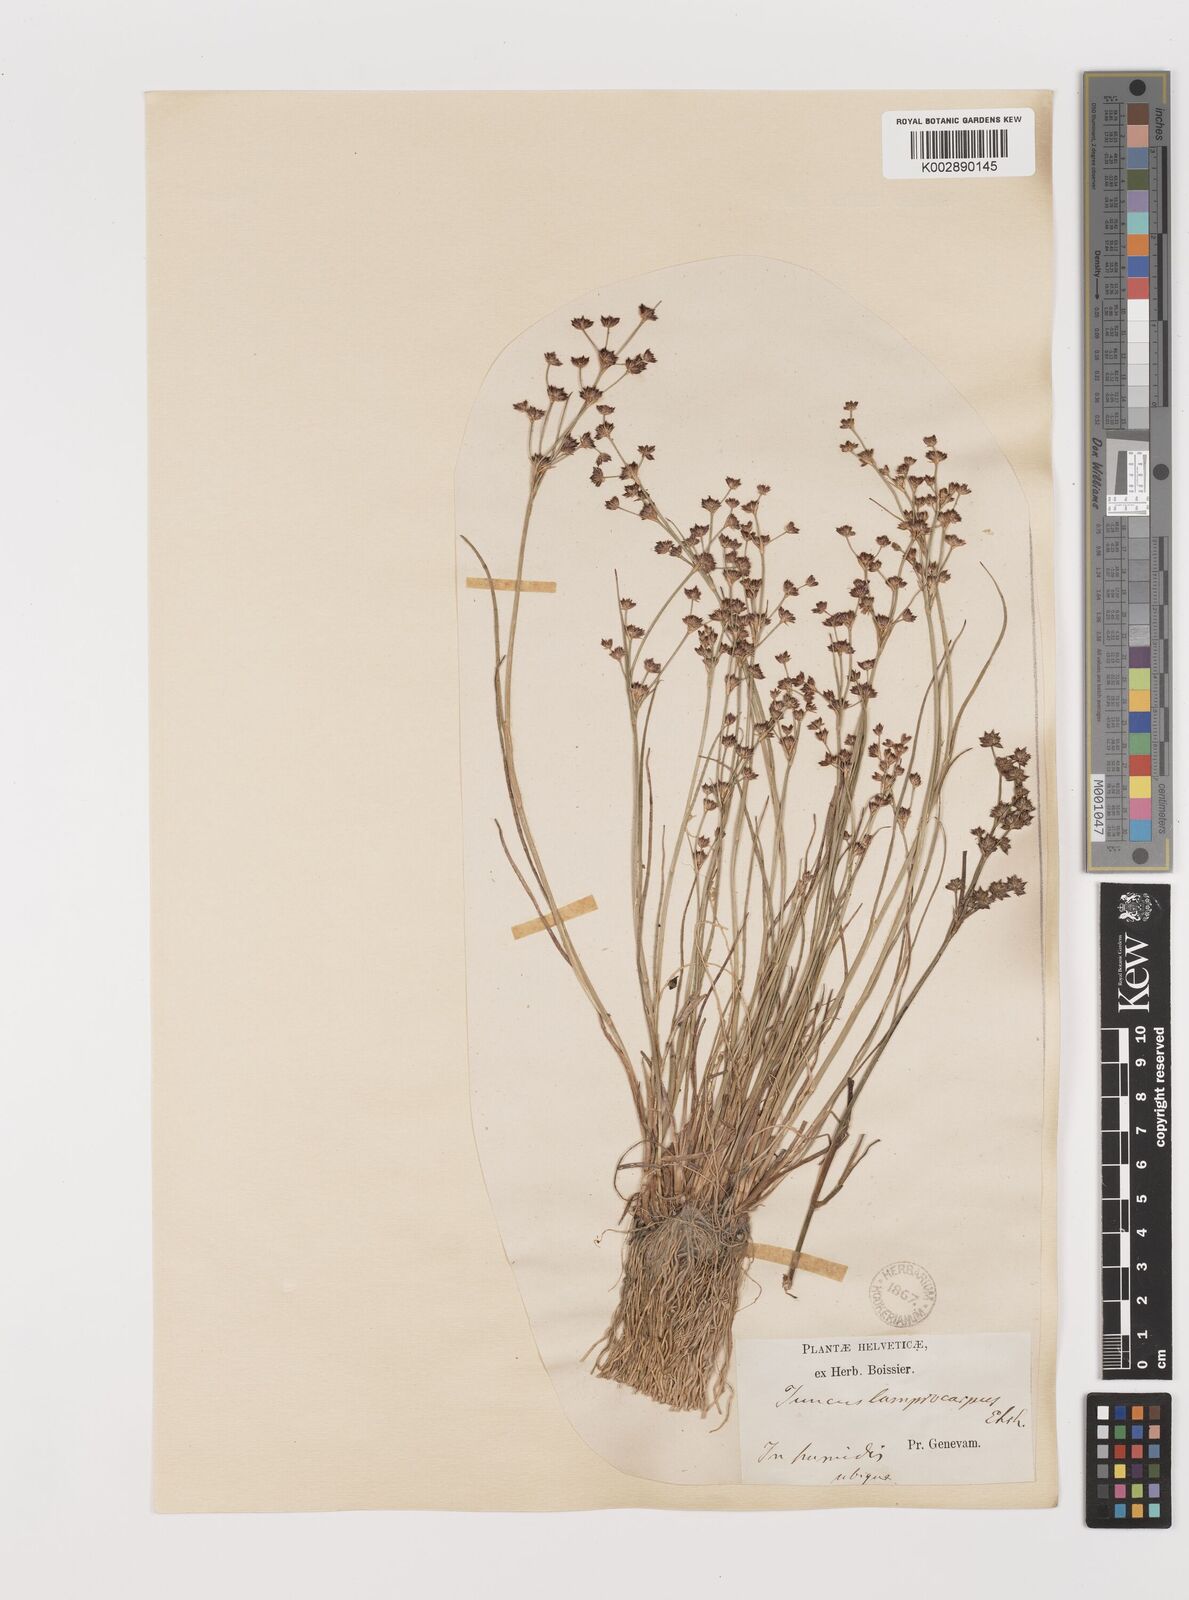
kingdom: Plantae
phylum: Tracheophyta
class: Liliopsida
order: Poales
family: Juncaceae
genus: Juncus
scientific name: Juncus articulatus
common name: Jointed rush
